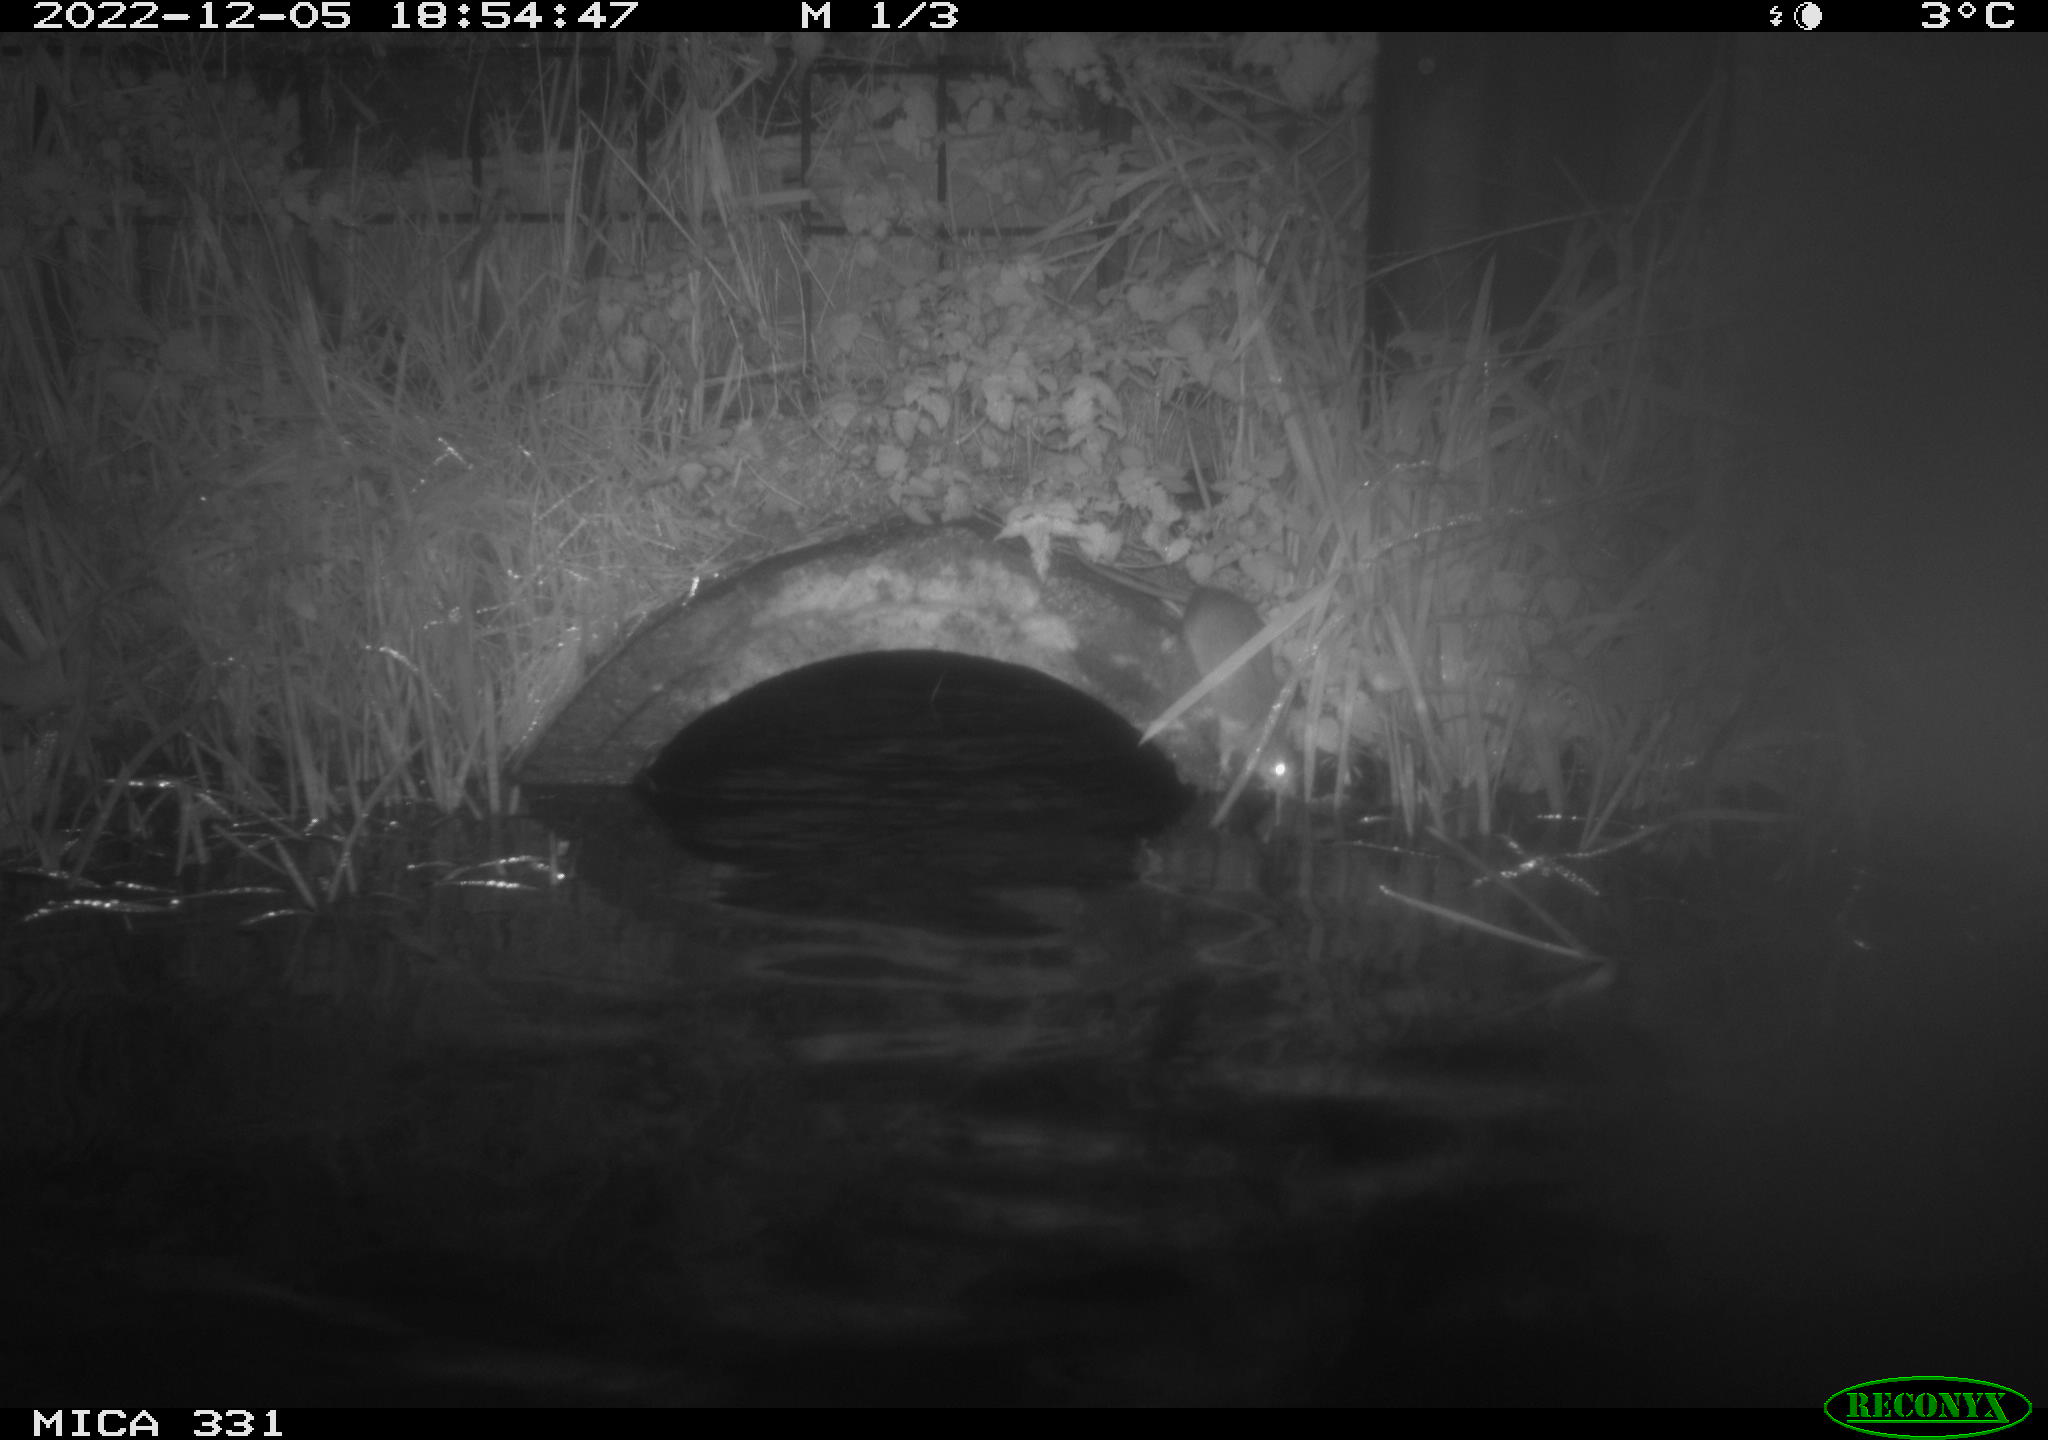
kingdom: Animalia
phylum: Chordata
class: Mammalia
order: Rodentia
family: Muridae
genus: Rattus
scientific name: Rattus norvegicus
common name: Brown rat
